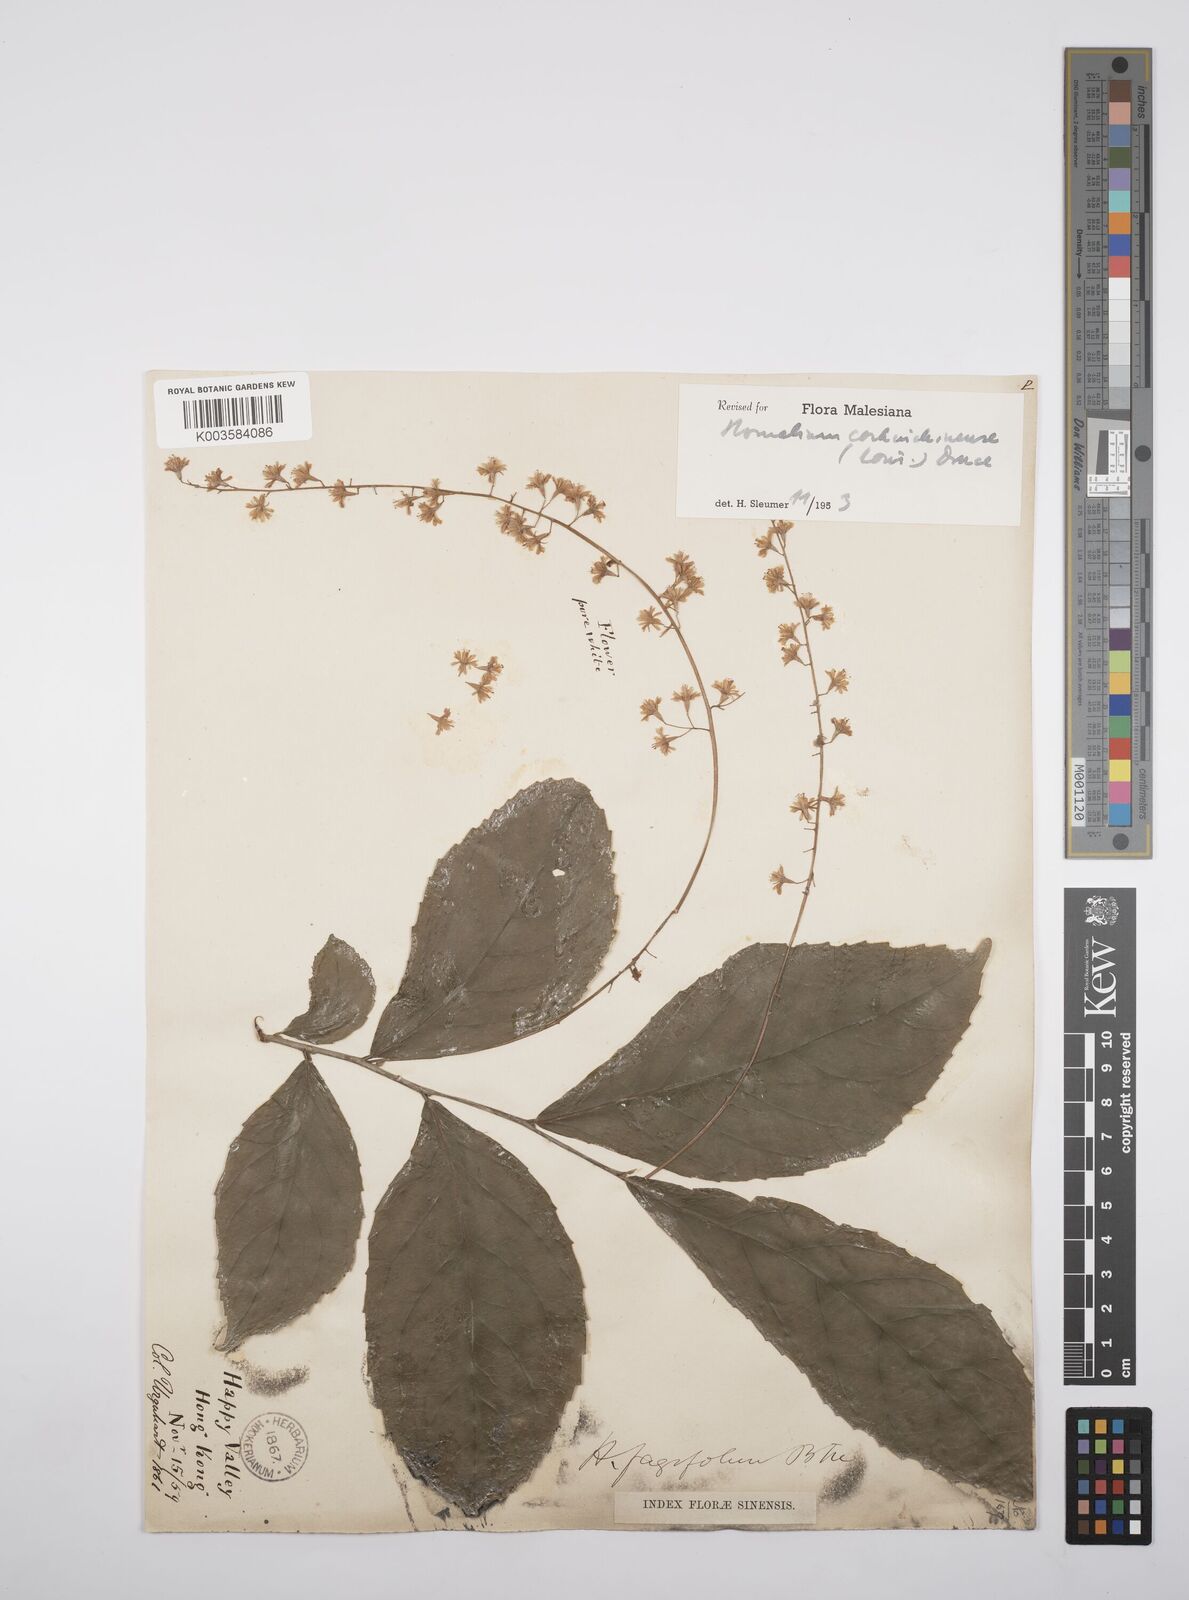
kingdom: Plantae
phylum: Tracheophyta
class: Magnoliopsida
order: Malpighiales
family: Salicaceae
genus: Homalium
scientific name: Homalium cochinchinensis
